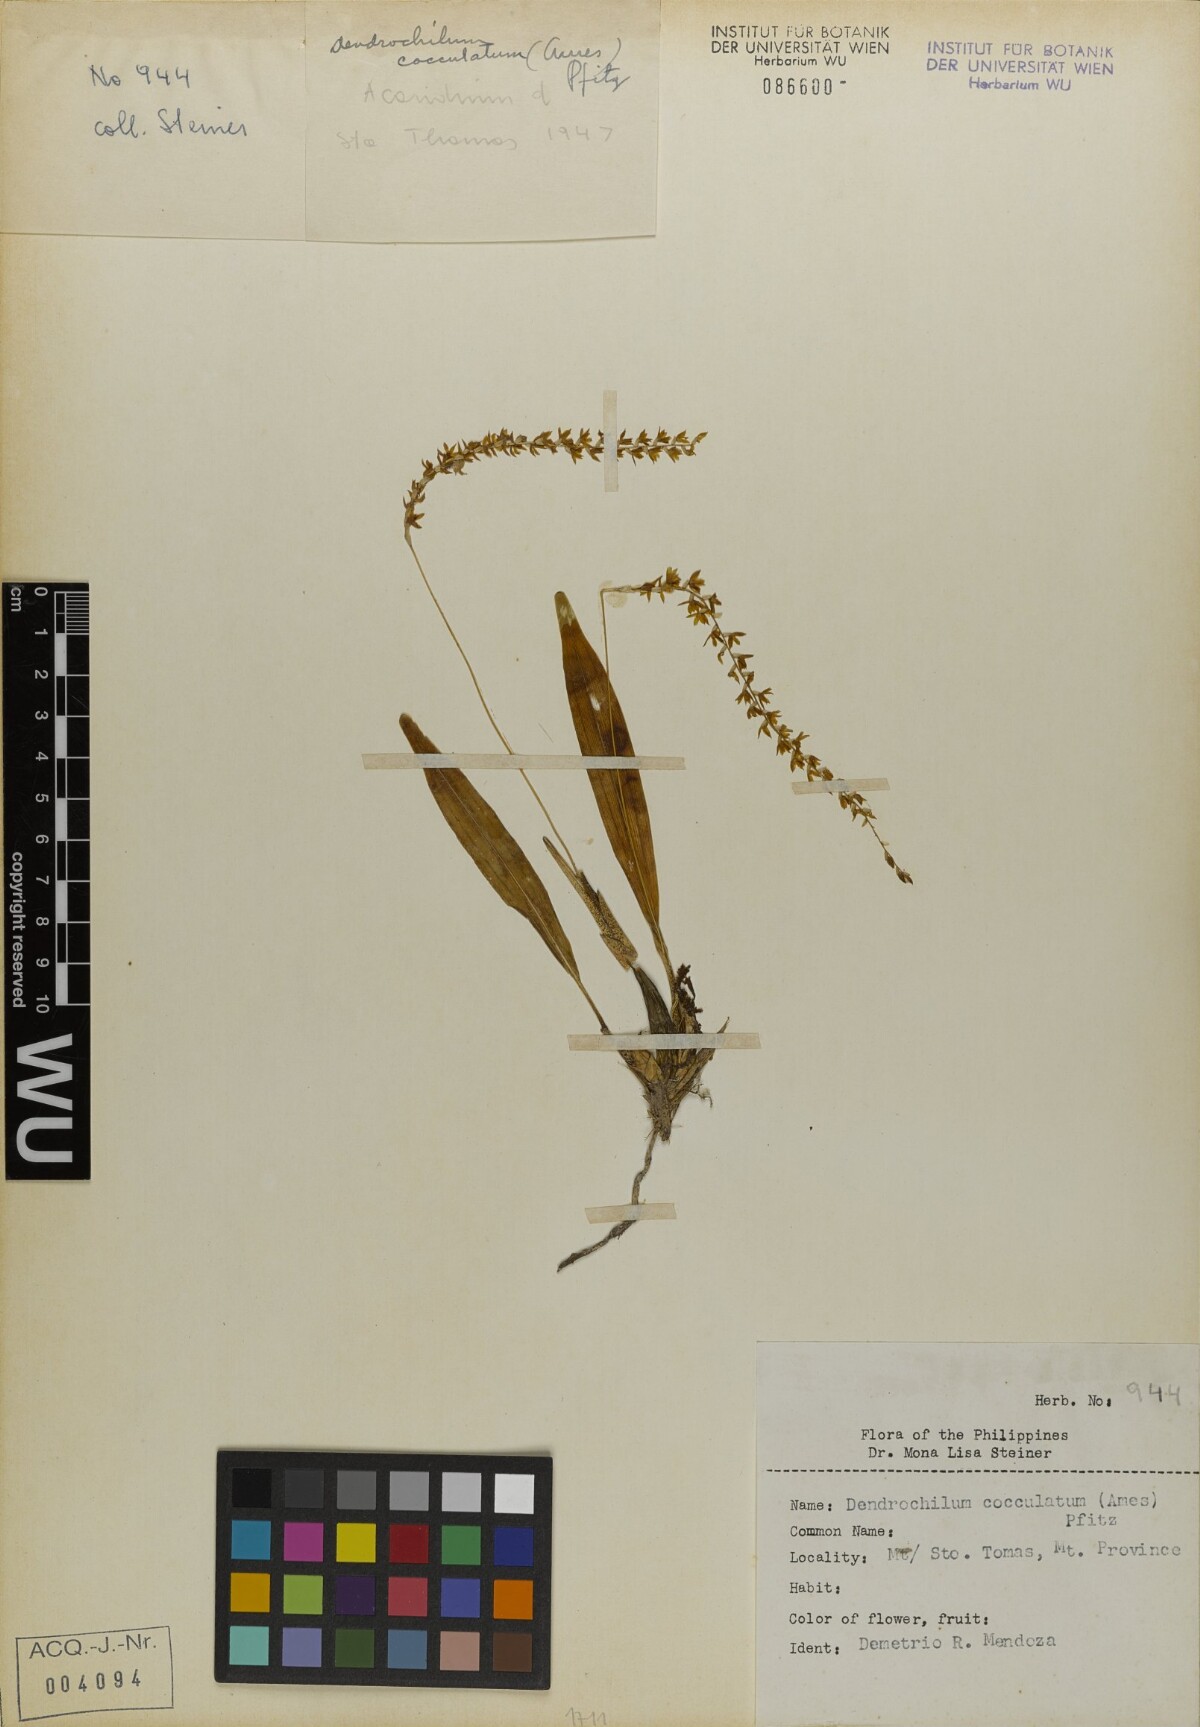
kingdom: Plantae
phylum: Tracheophyta
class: Liliopsida
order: Asparagales
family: Orchidaceae
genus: Coelogyne
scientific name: Coelogyne graciliscapa
